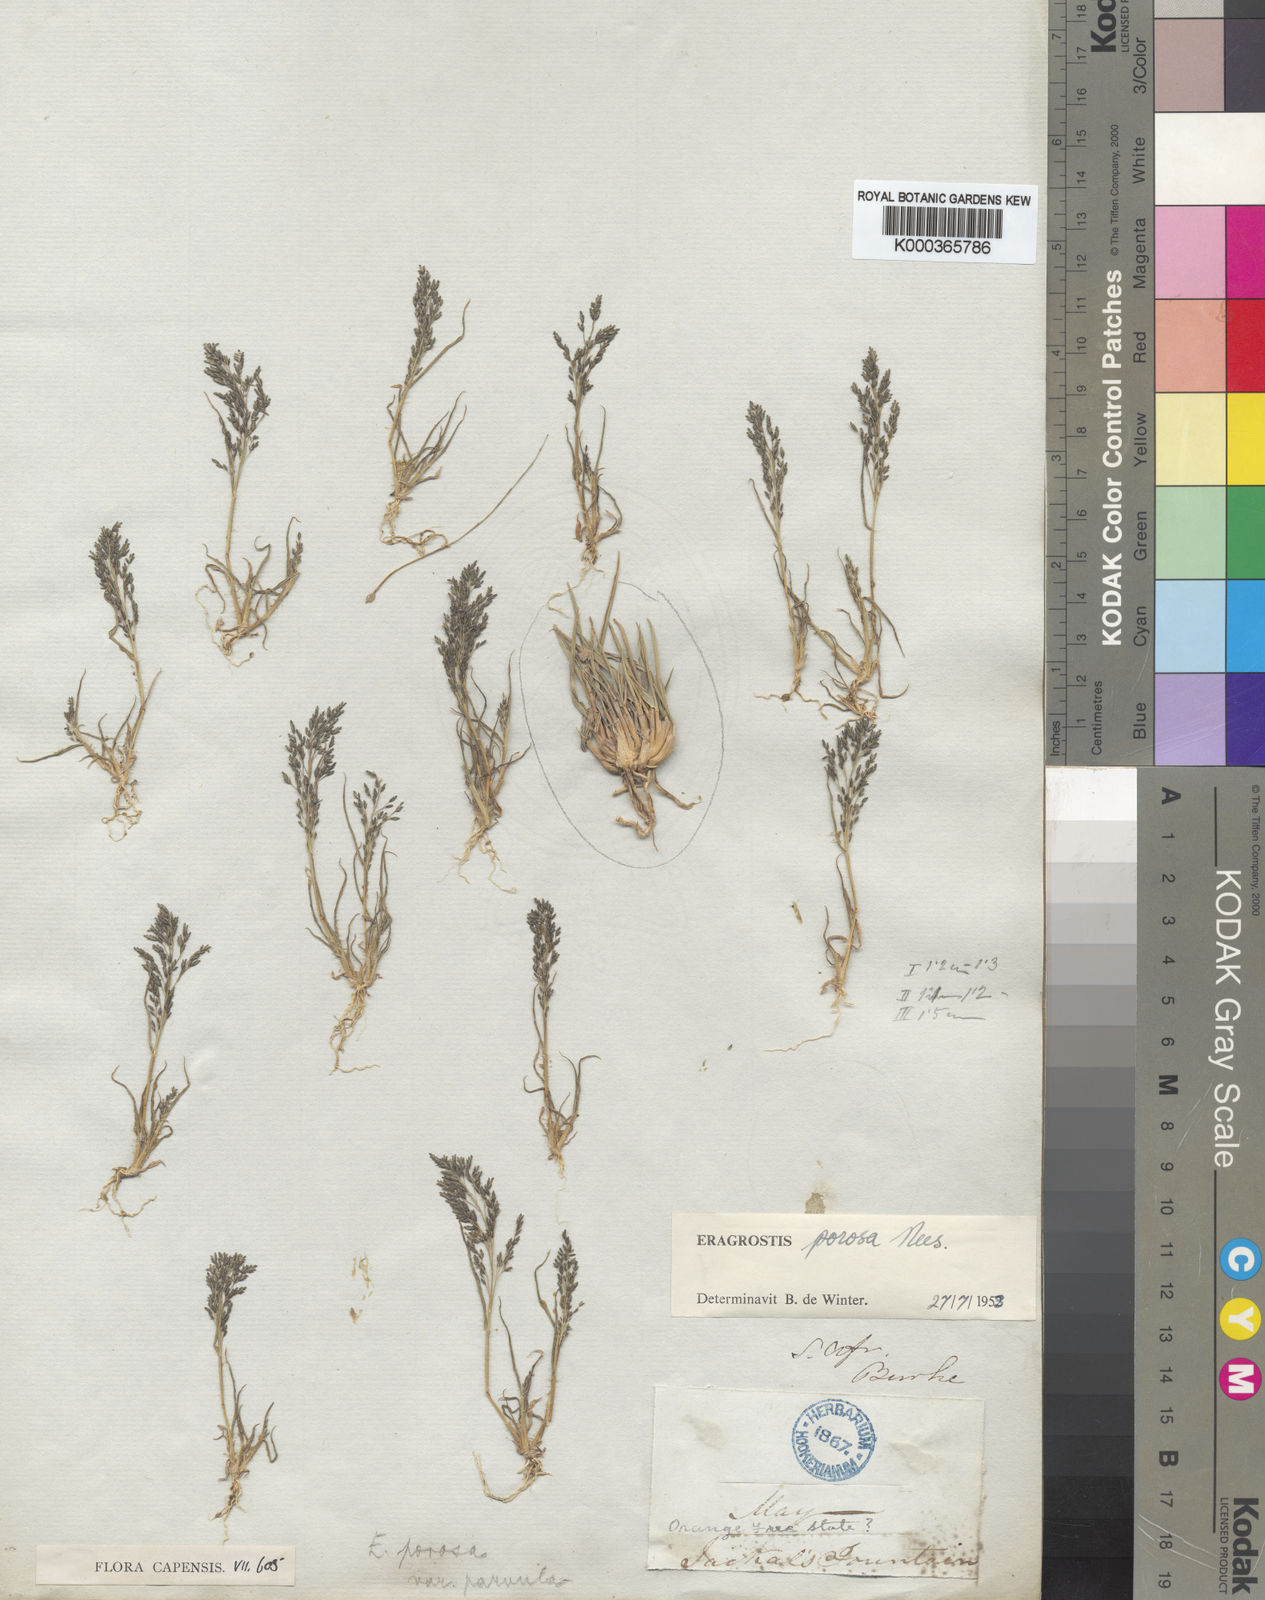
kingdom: Plantae
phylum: Tracheophyta
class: Liliopsida
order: Poales
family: Poaceae
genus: Eragrostis
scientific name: Eragrostis porosa
